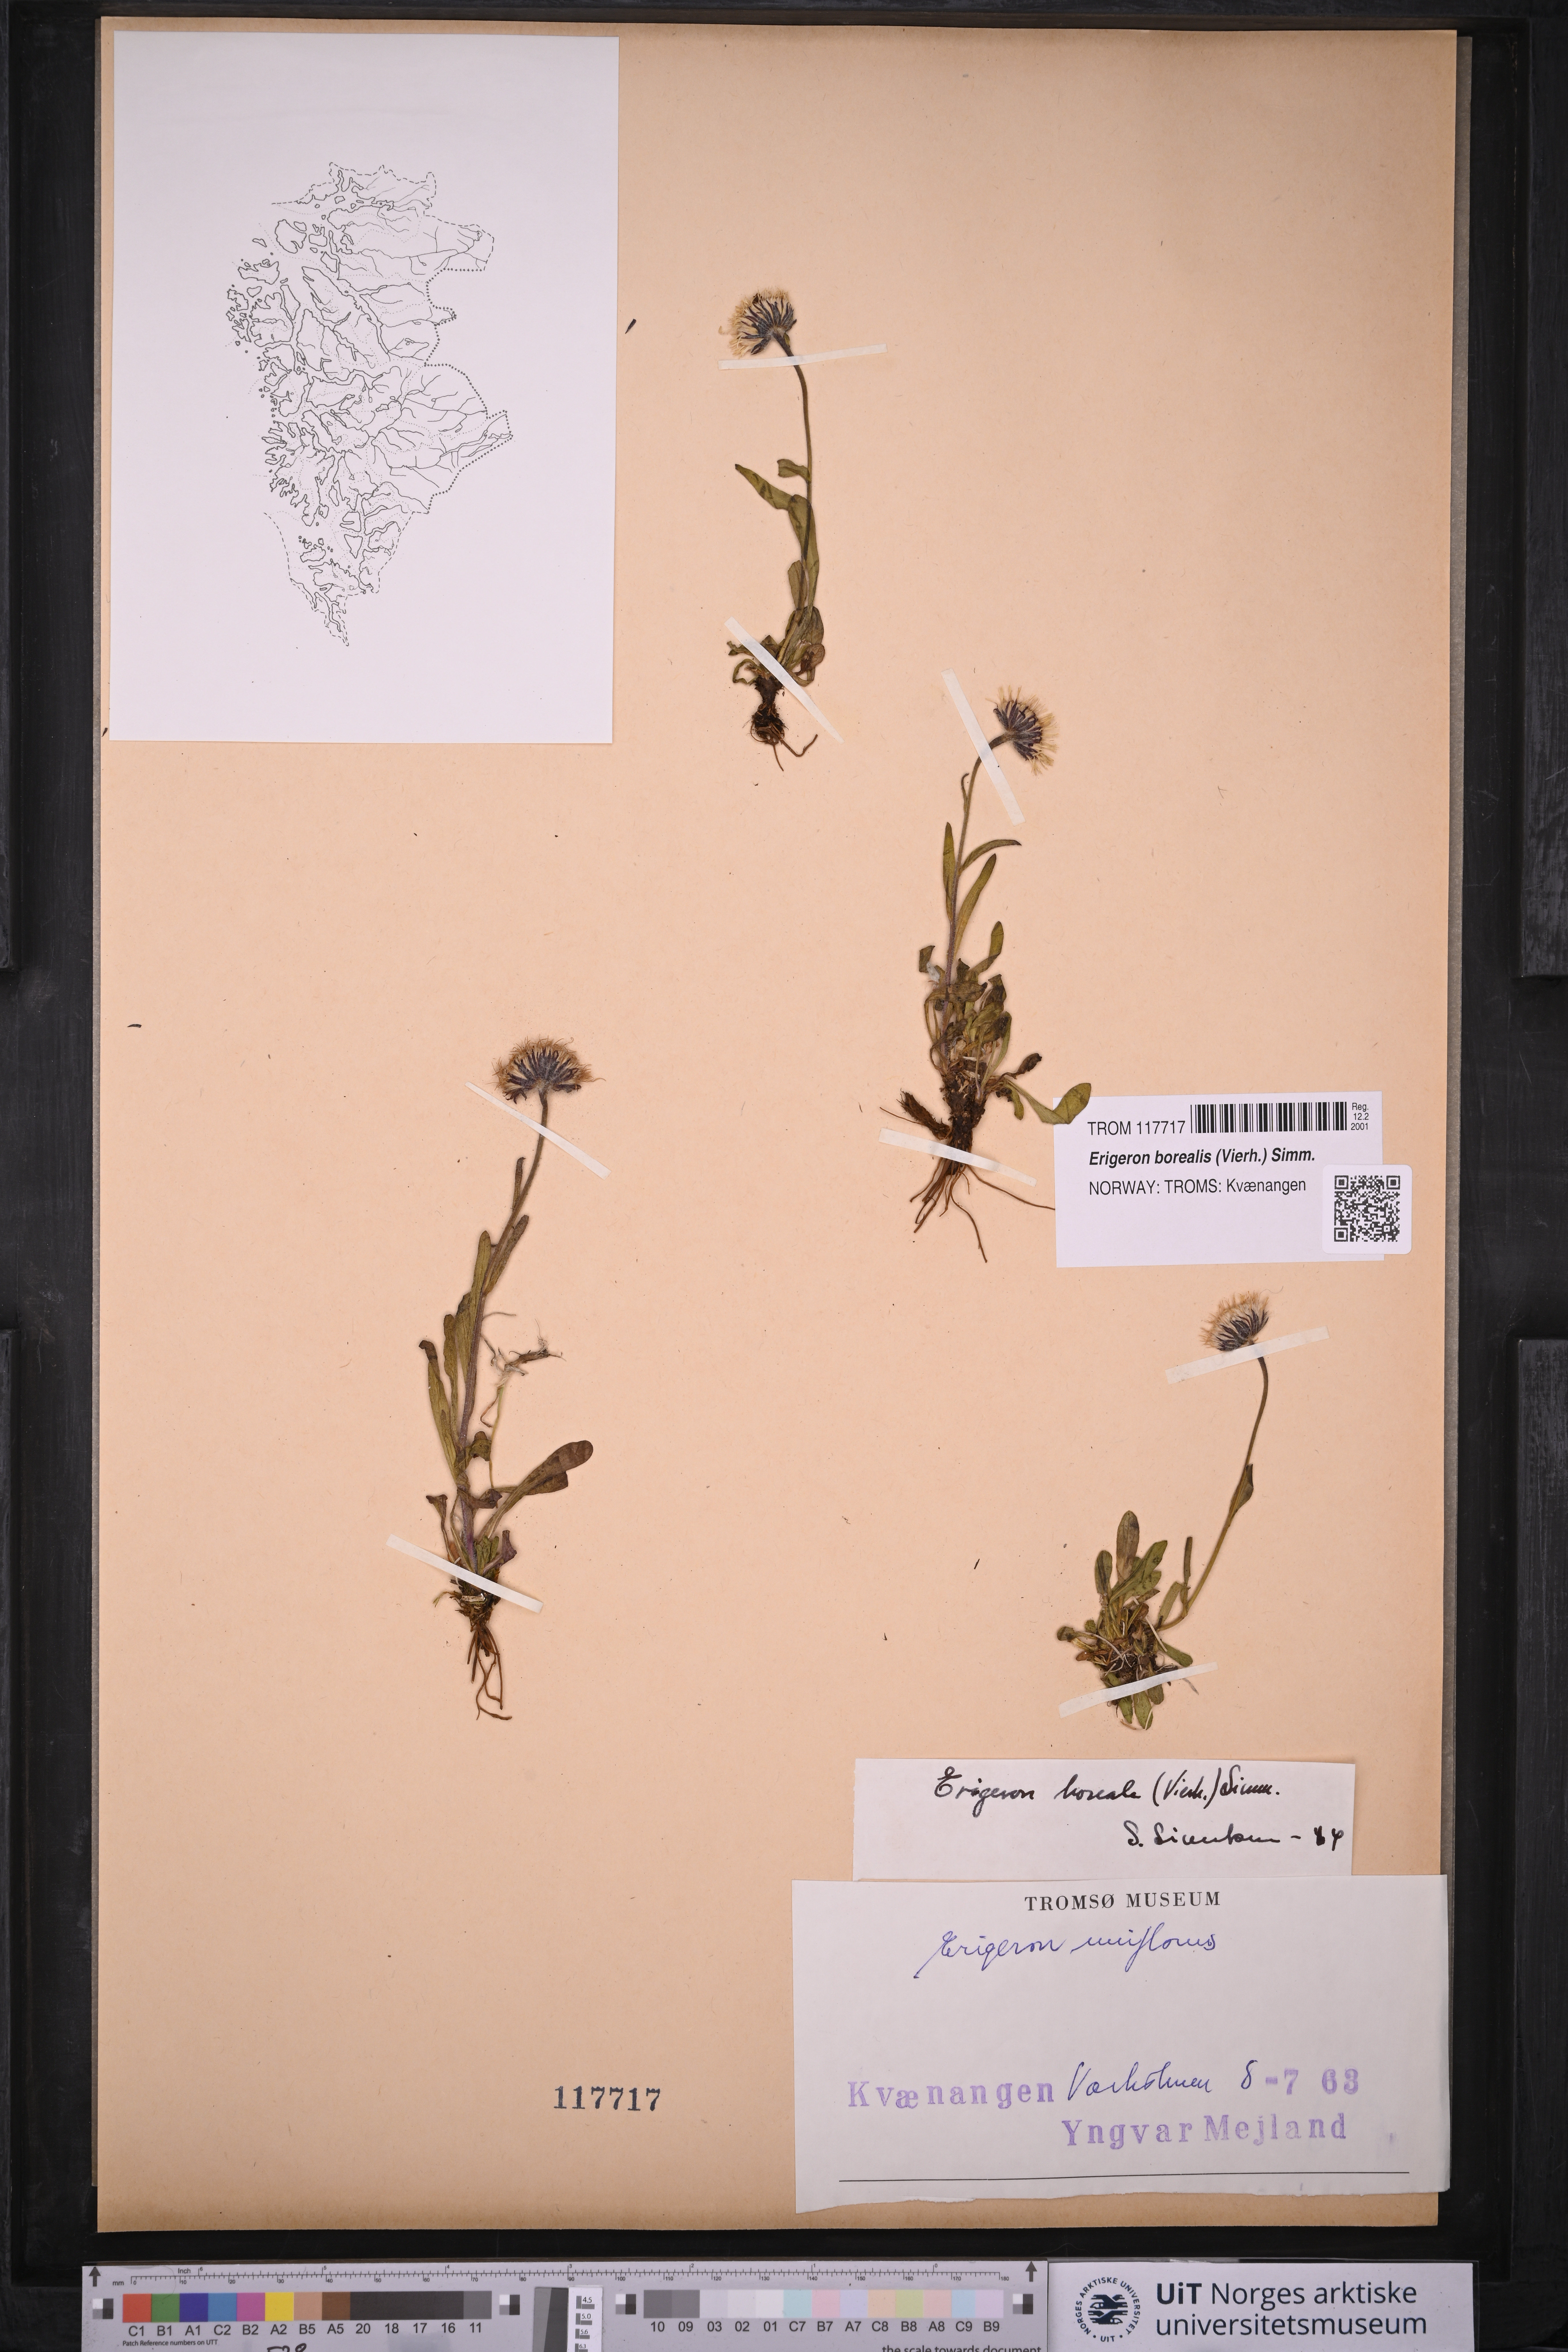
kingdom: Plantae
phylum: Tracheophyta
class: Magnoliopsida
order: Asterales
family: Asteraceae
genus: Erigeron
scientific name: Erigeron borealis
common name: Alpine fleabane
